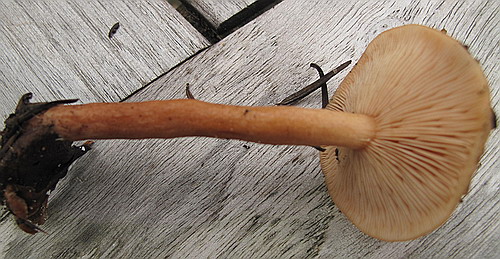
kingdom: Fungi
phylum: Basidiomycota
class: Agaricomycetes
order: Russulales
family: Russulaceae
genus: Lactarius
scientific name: Lactarius tabidus
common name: rynket mælkehat
